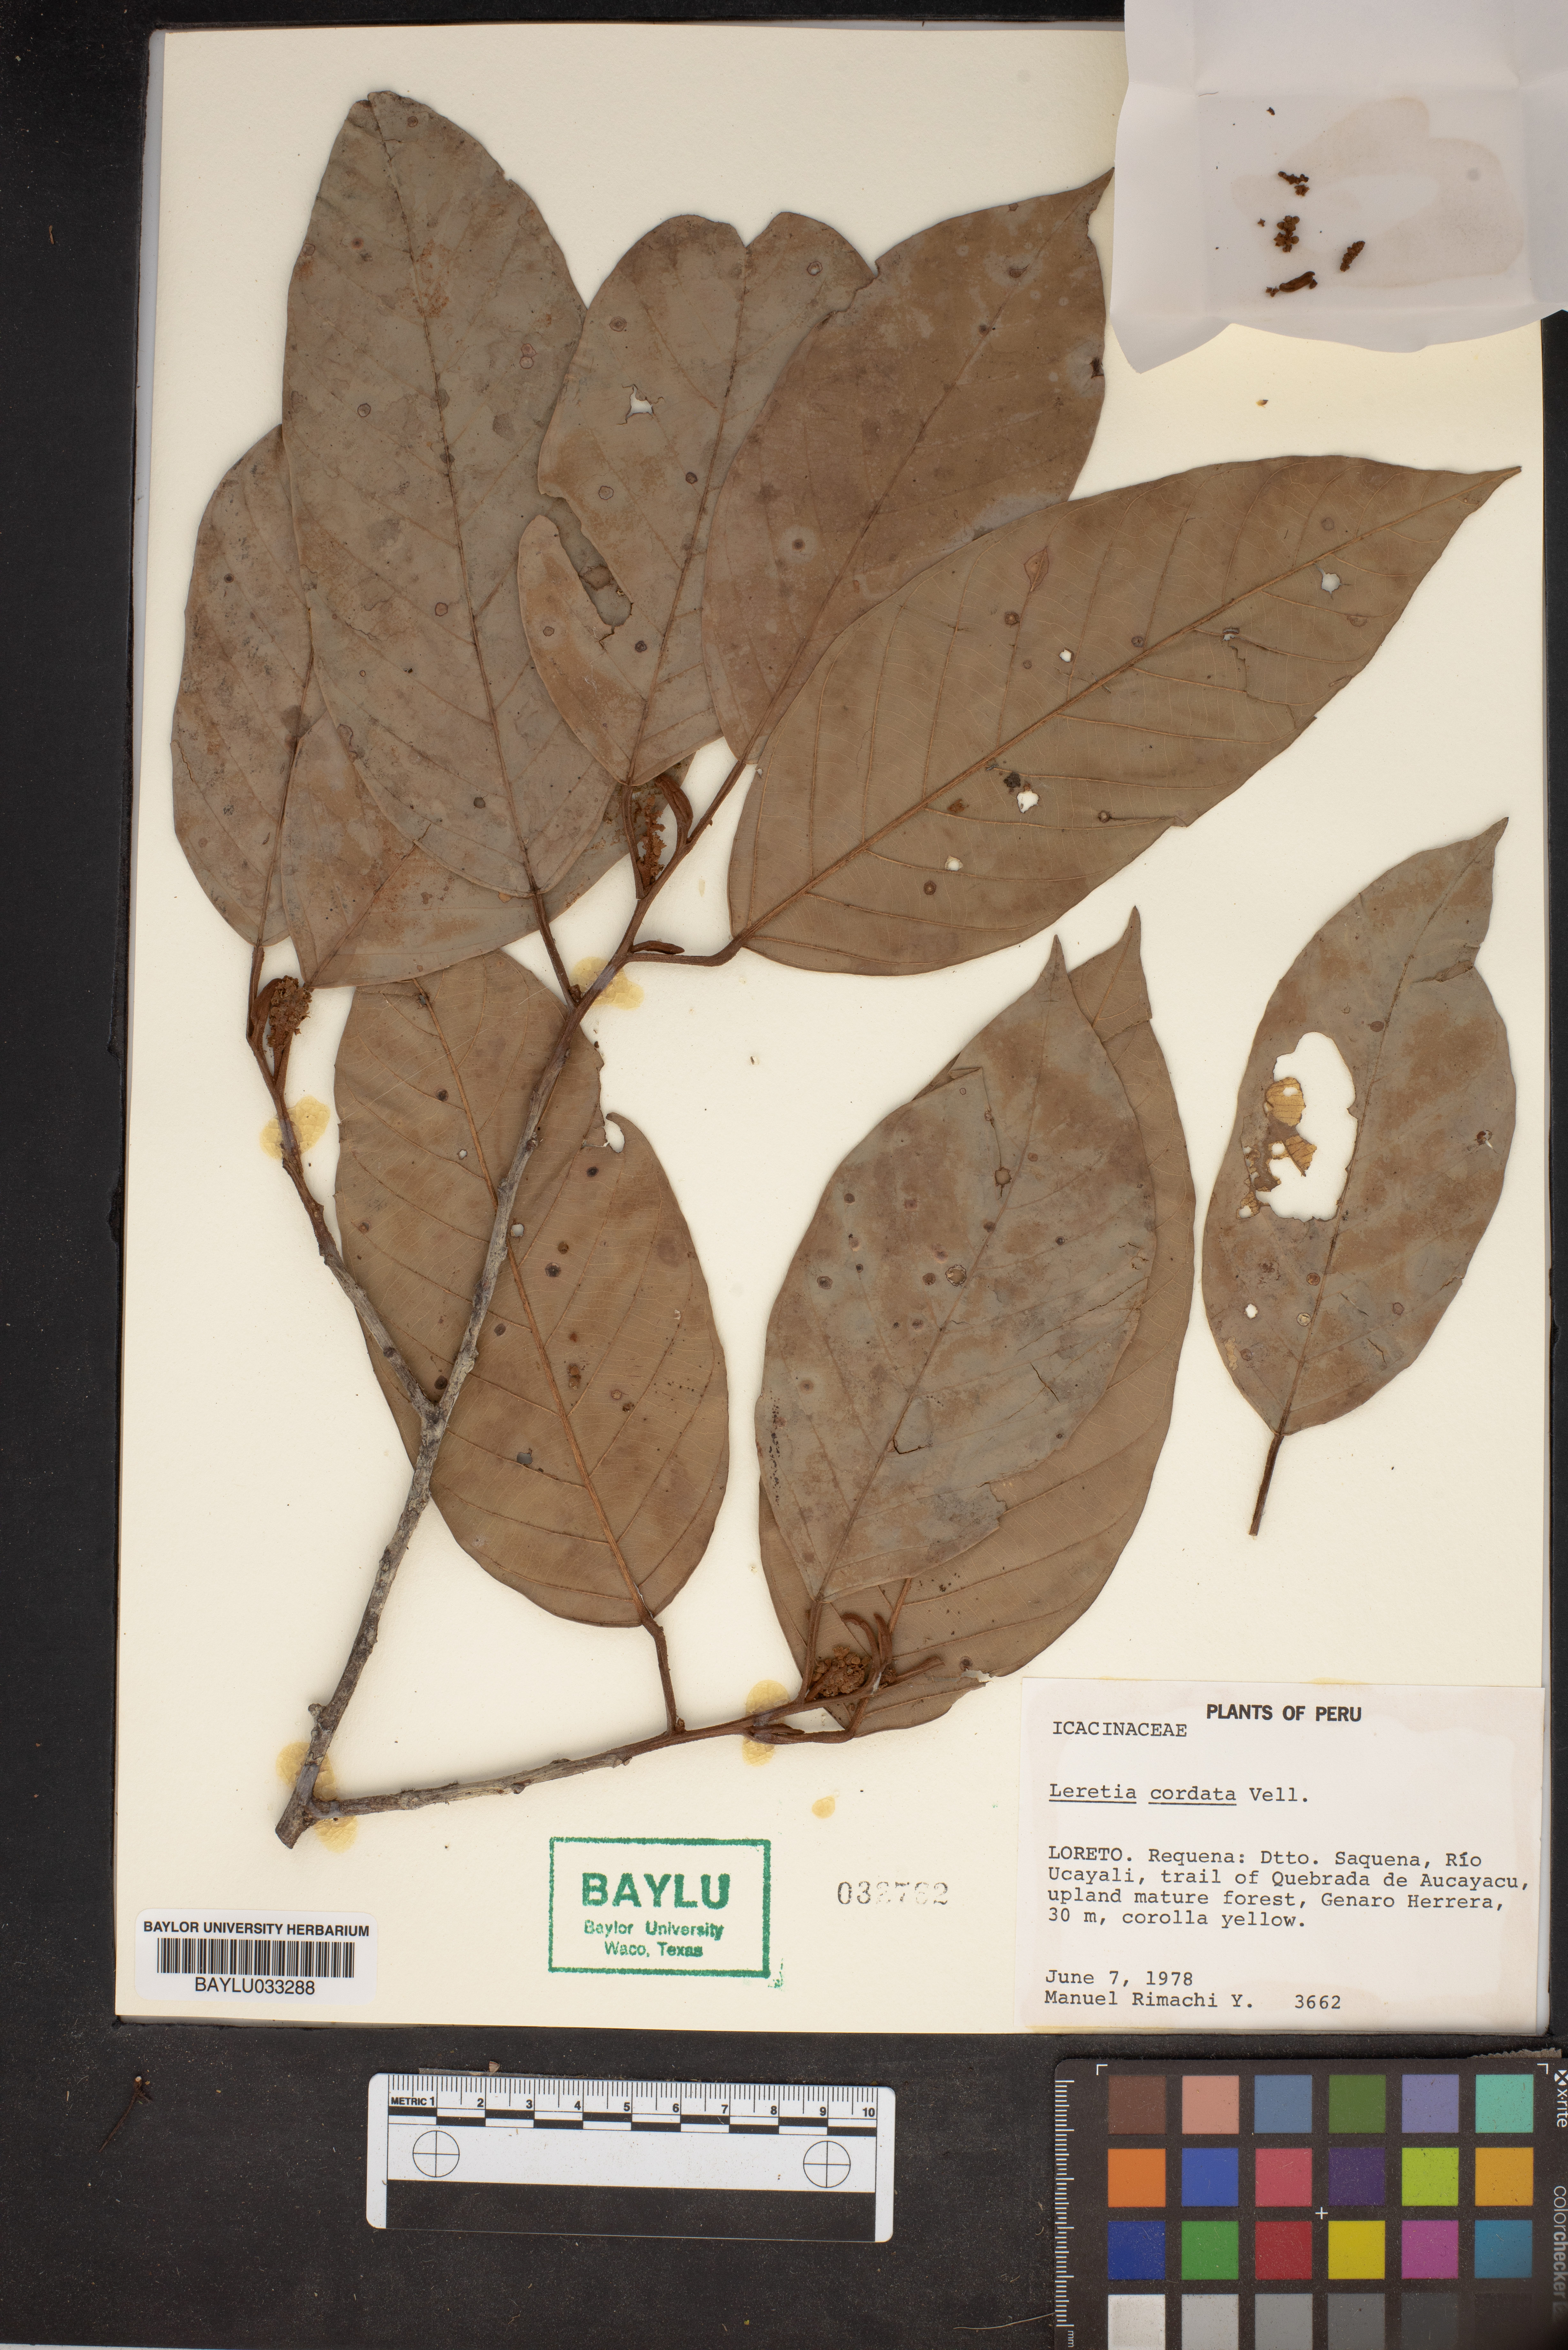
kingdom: Plantae
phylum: Tracheophyta
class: Magnoliopsida
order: Icacinales
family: Icacinaceae
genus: Leretia
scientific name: Leretia cordata
